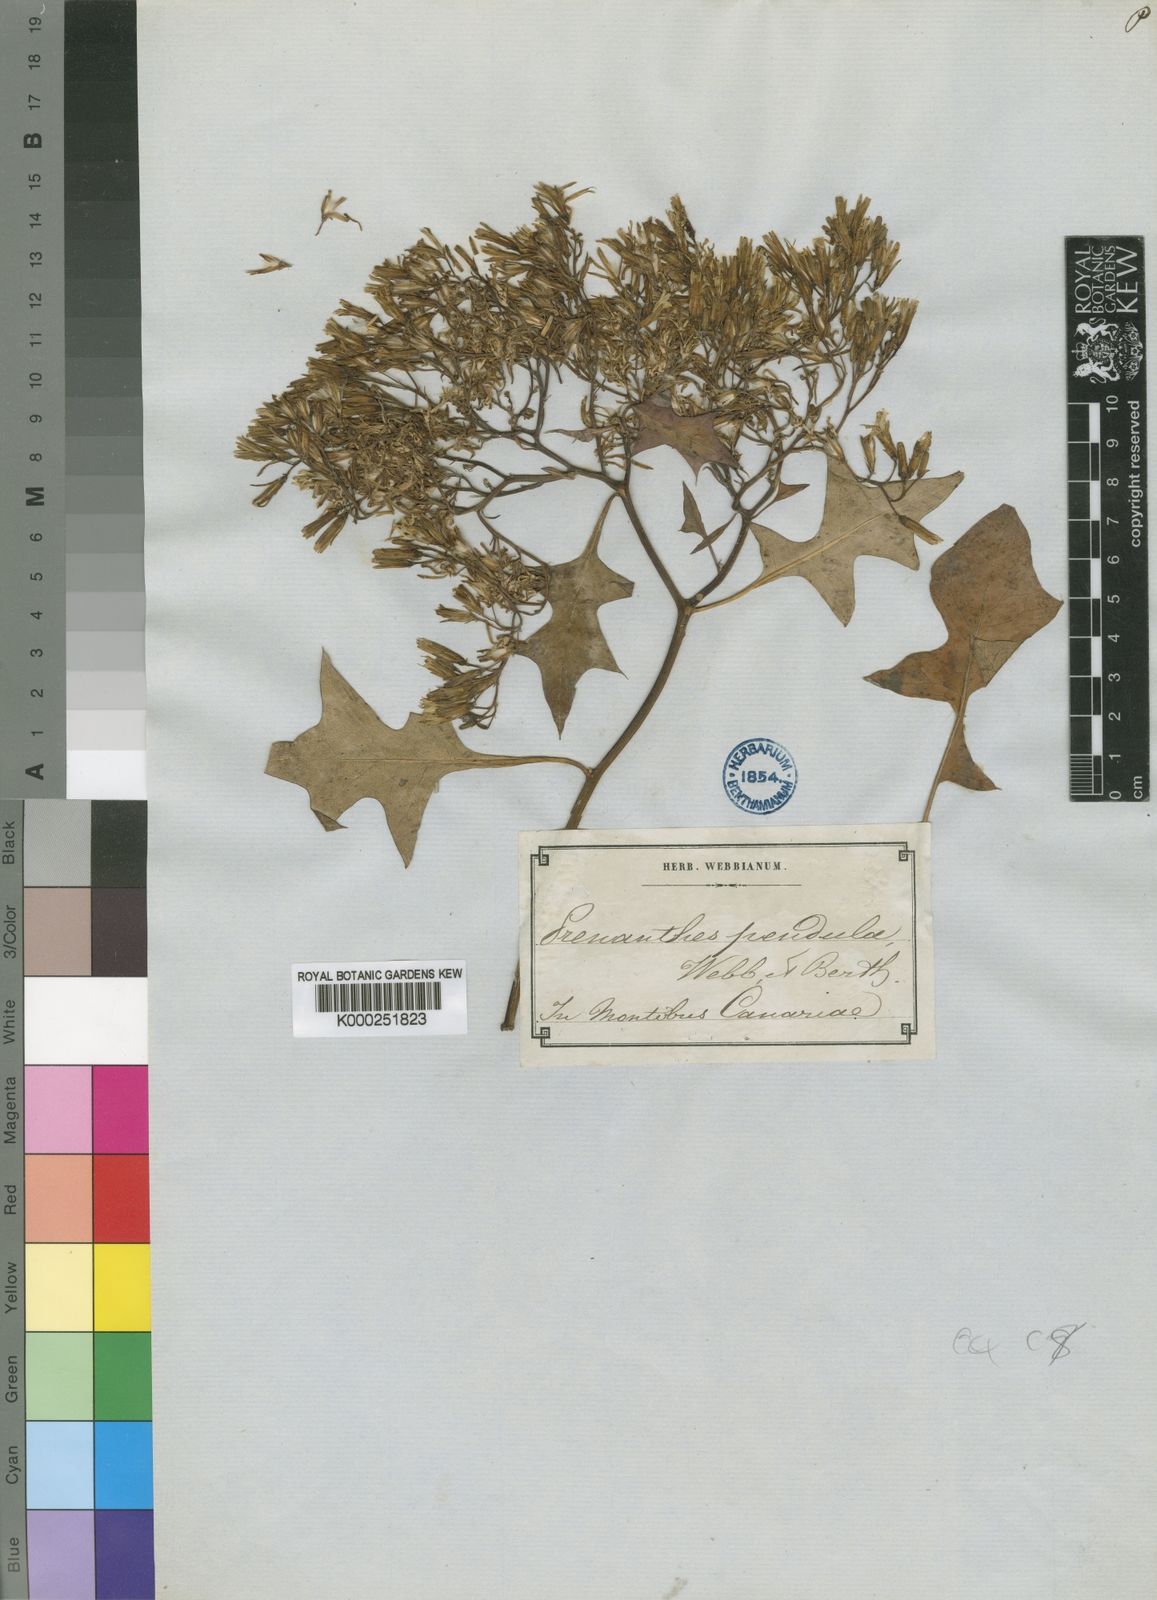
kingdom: Plantae
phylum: Tracheophyta
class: Magnoliopsida
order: Asterales
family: Asteraceae
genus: Sonchus
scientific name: Sonchus pendulus
